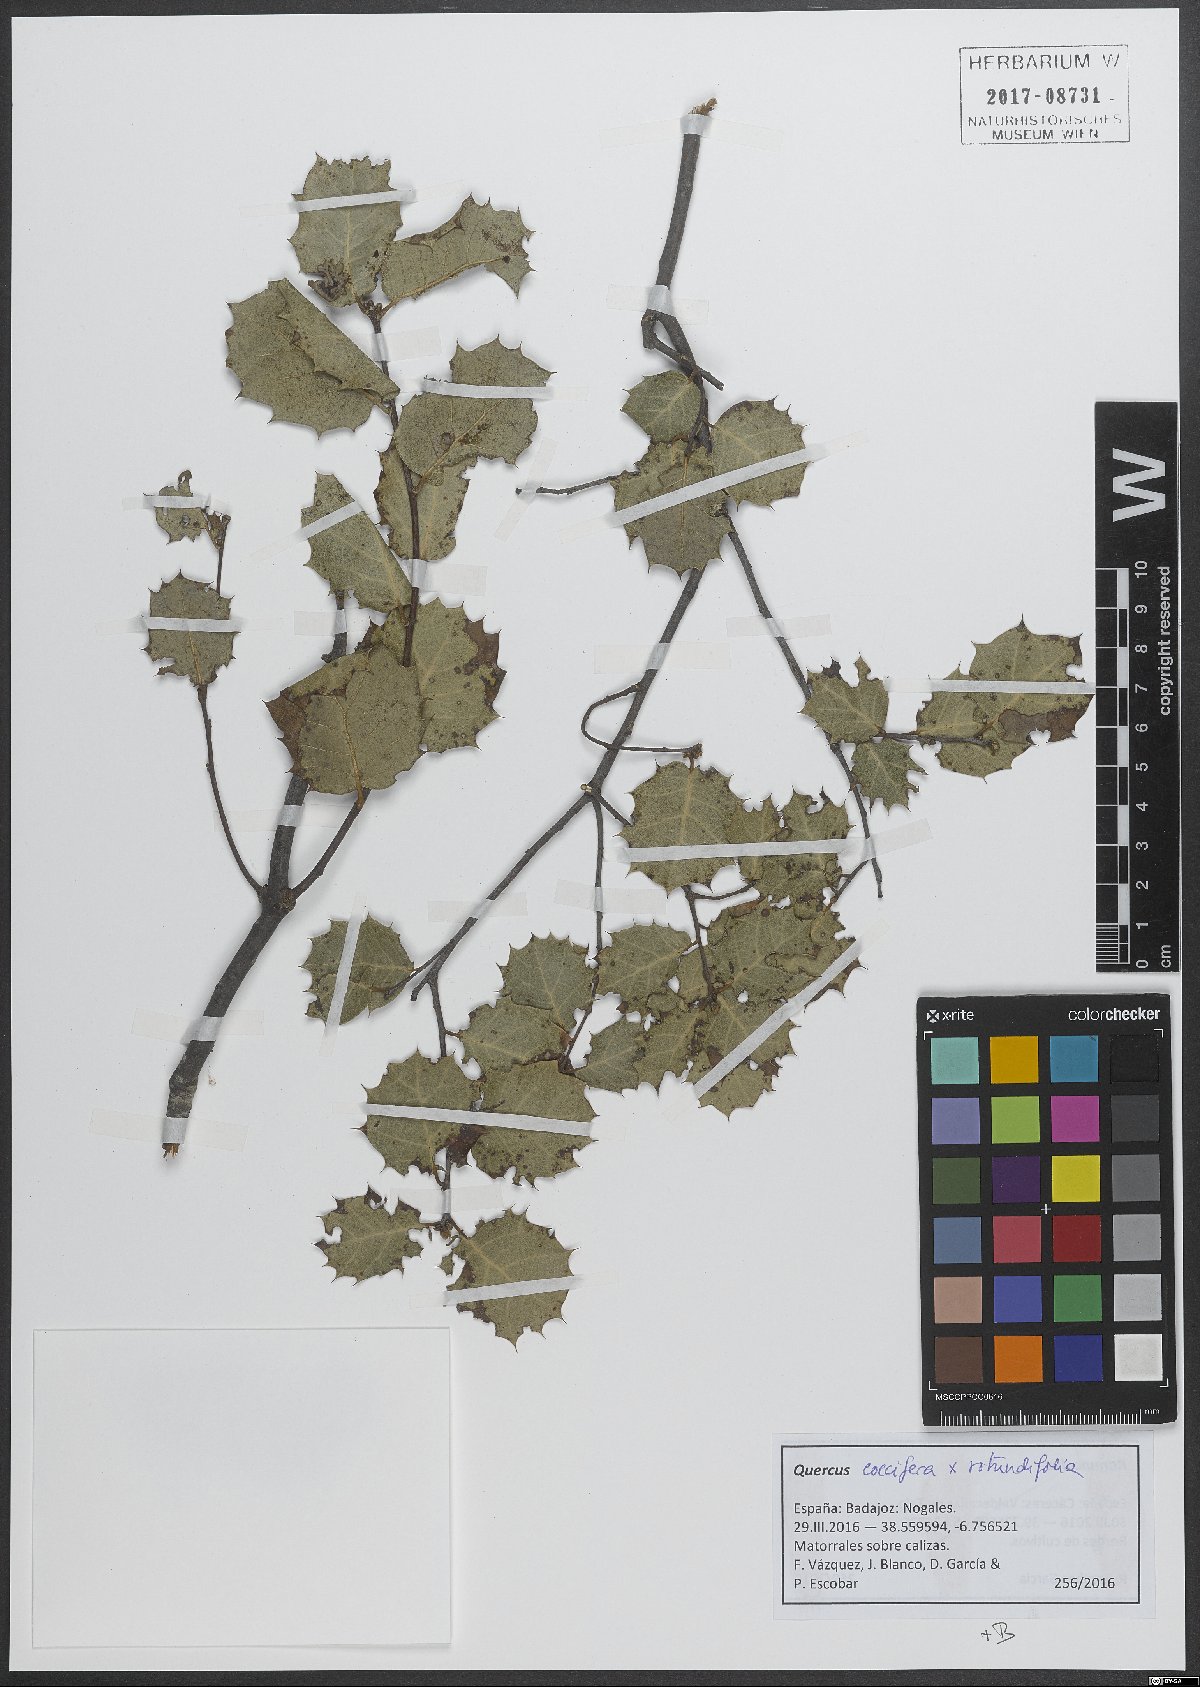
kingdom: Plantae
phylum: Tracheophyta
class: Magnoliopsida
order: Fagales
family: Fagaceae
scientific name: Fagaceae
